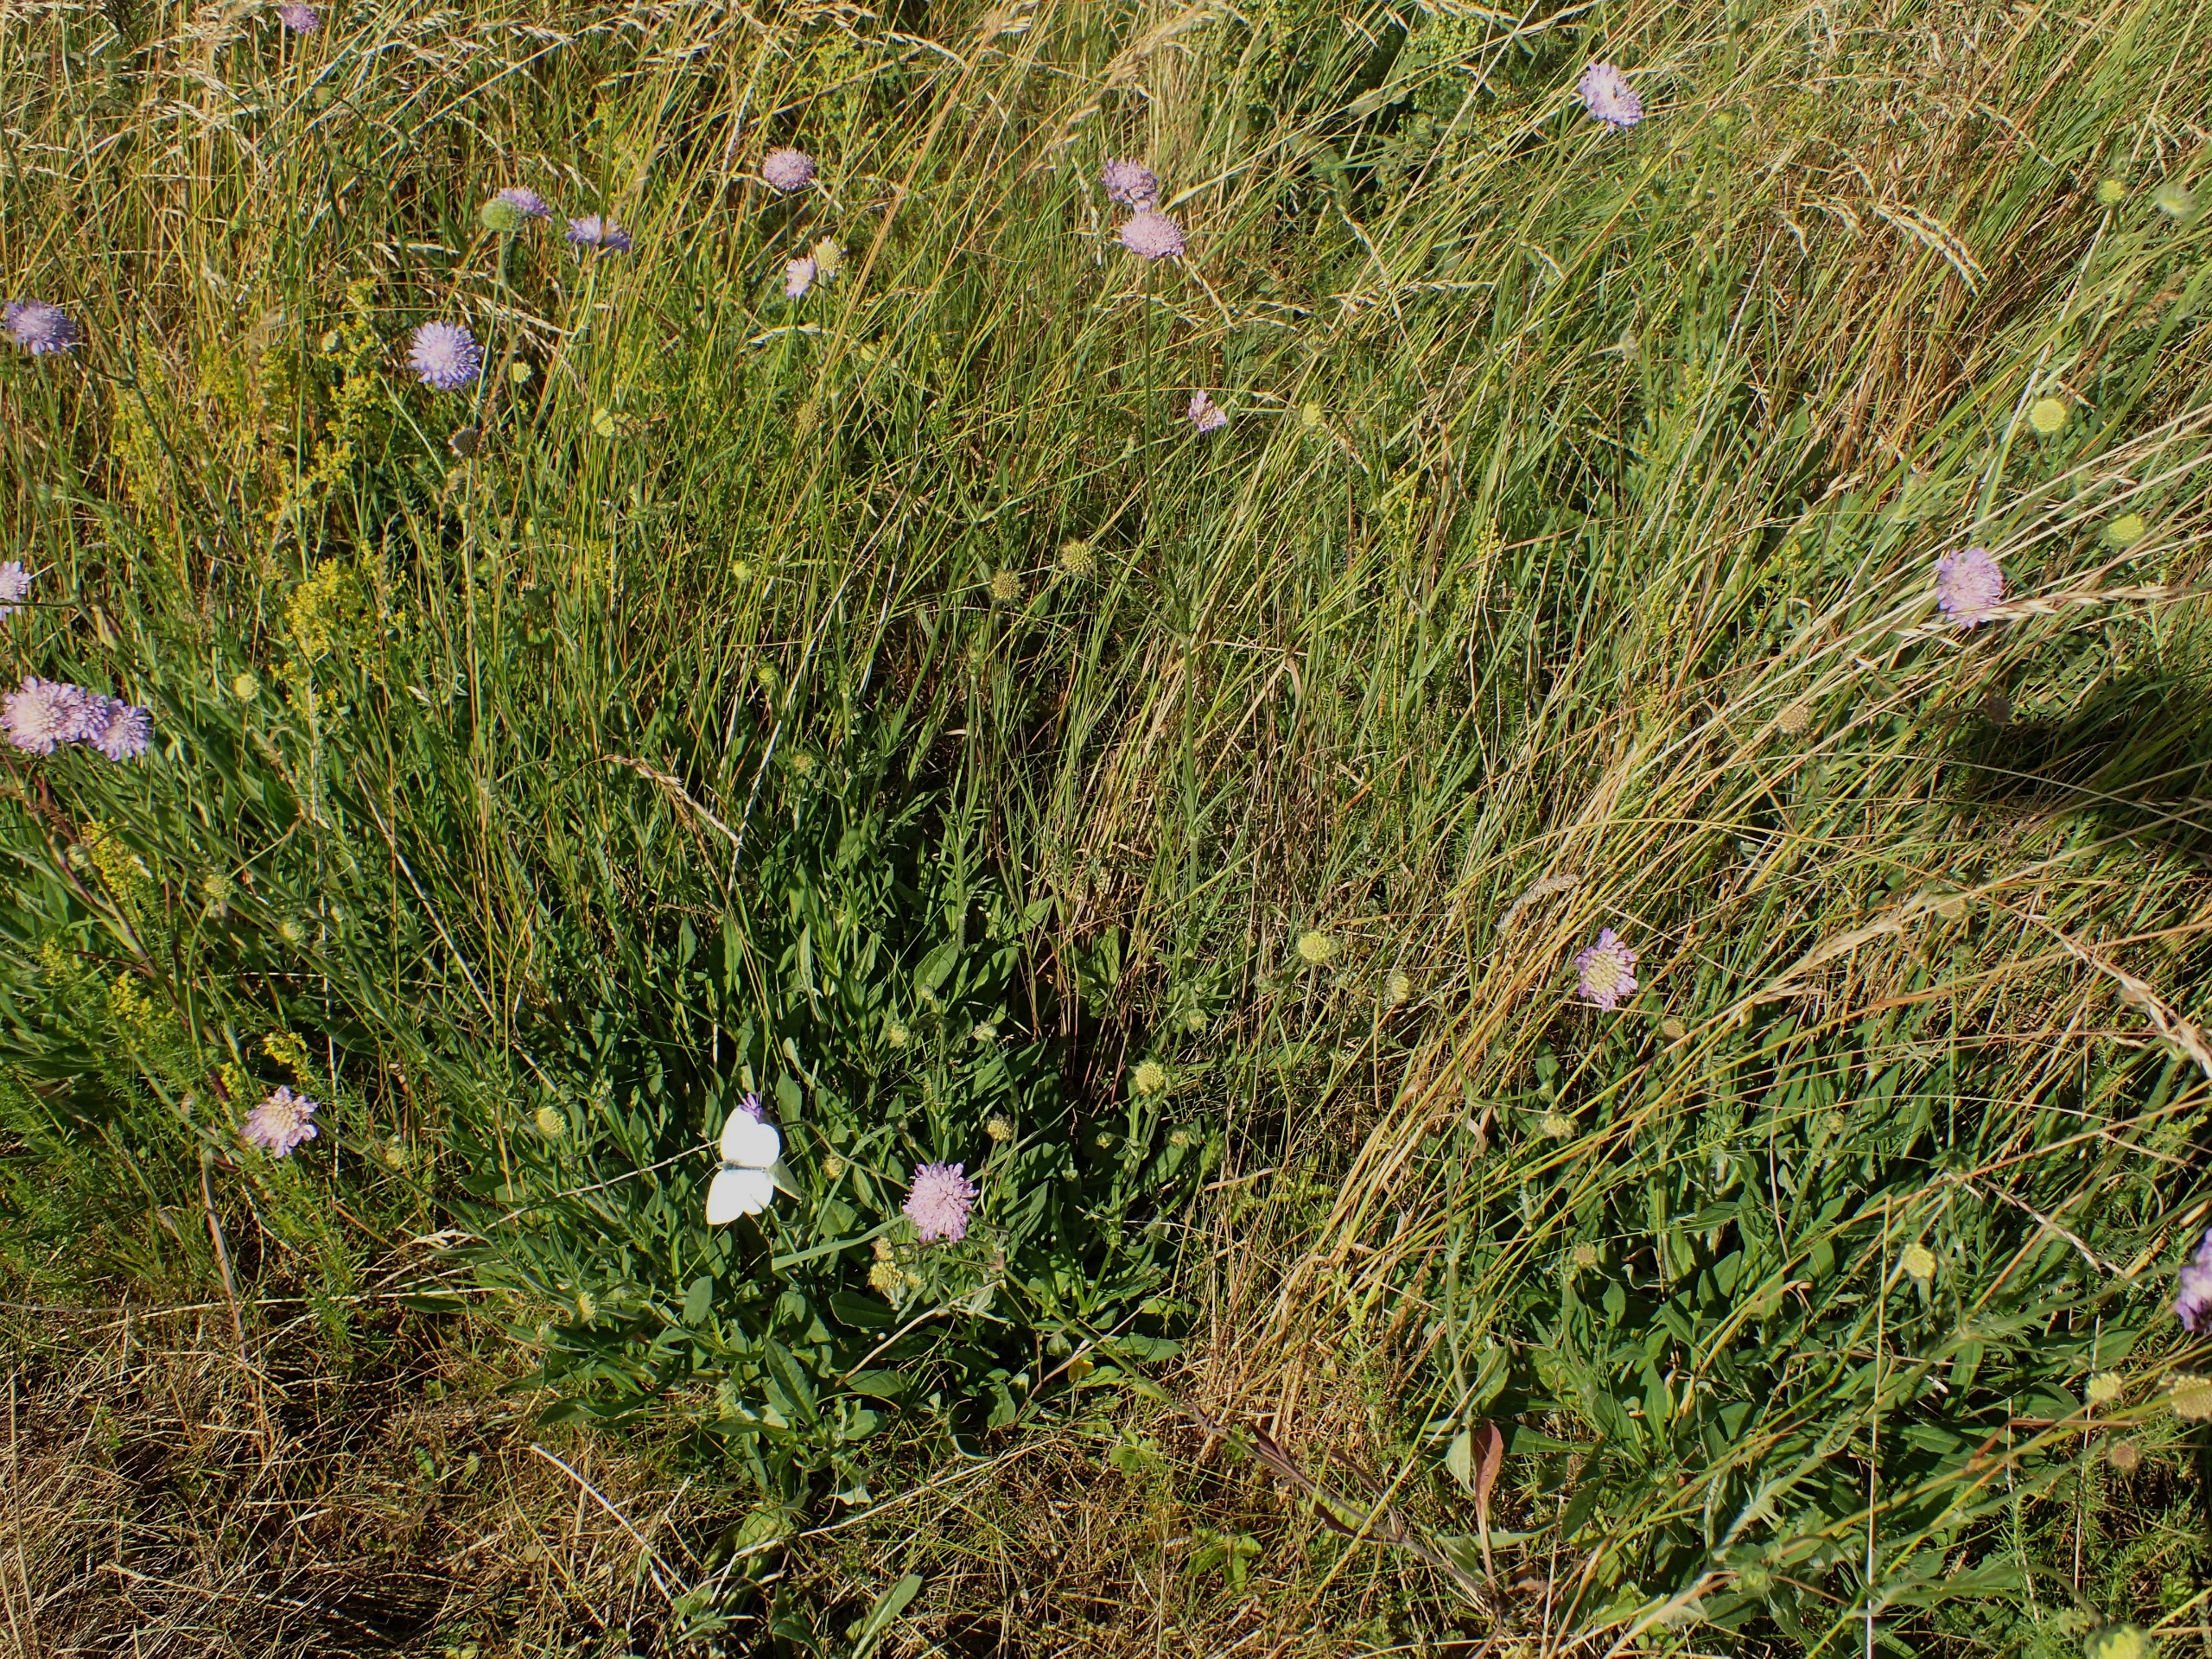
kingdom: Plantae
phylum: Tracheophyta
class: Magnoliopsida
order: Dipsacales
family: Caprifoliaceae
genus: Knautia
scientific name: Knautia arvensis
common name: Blåhat
